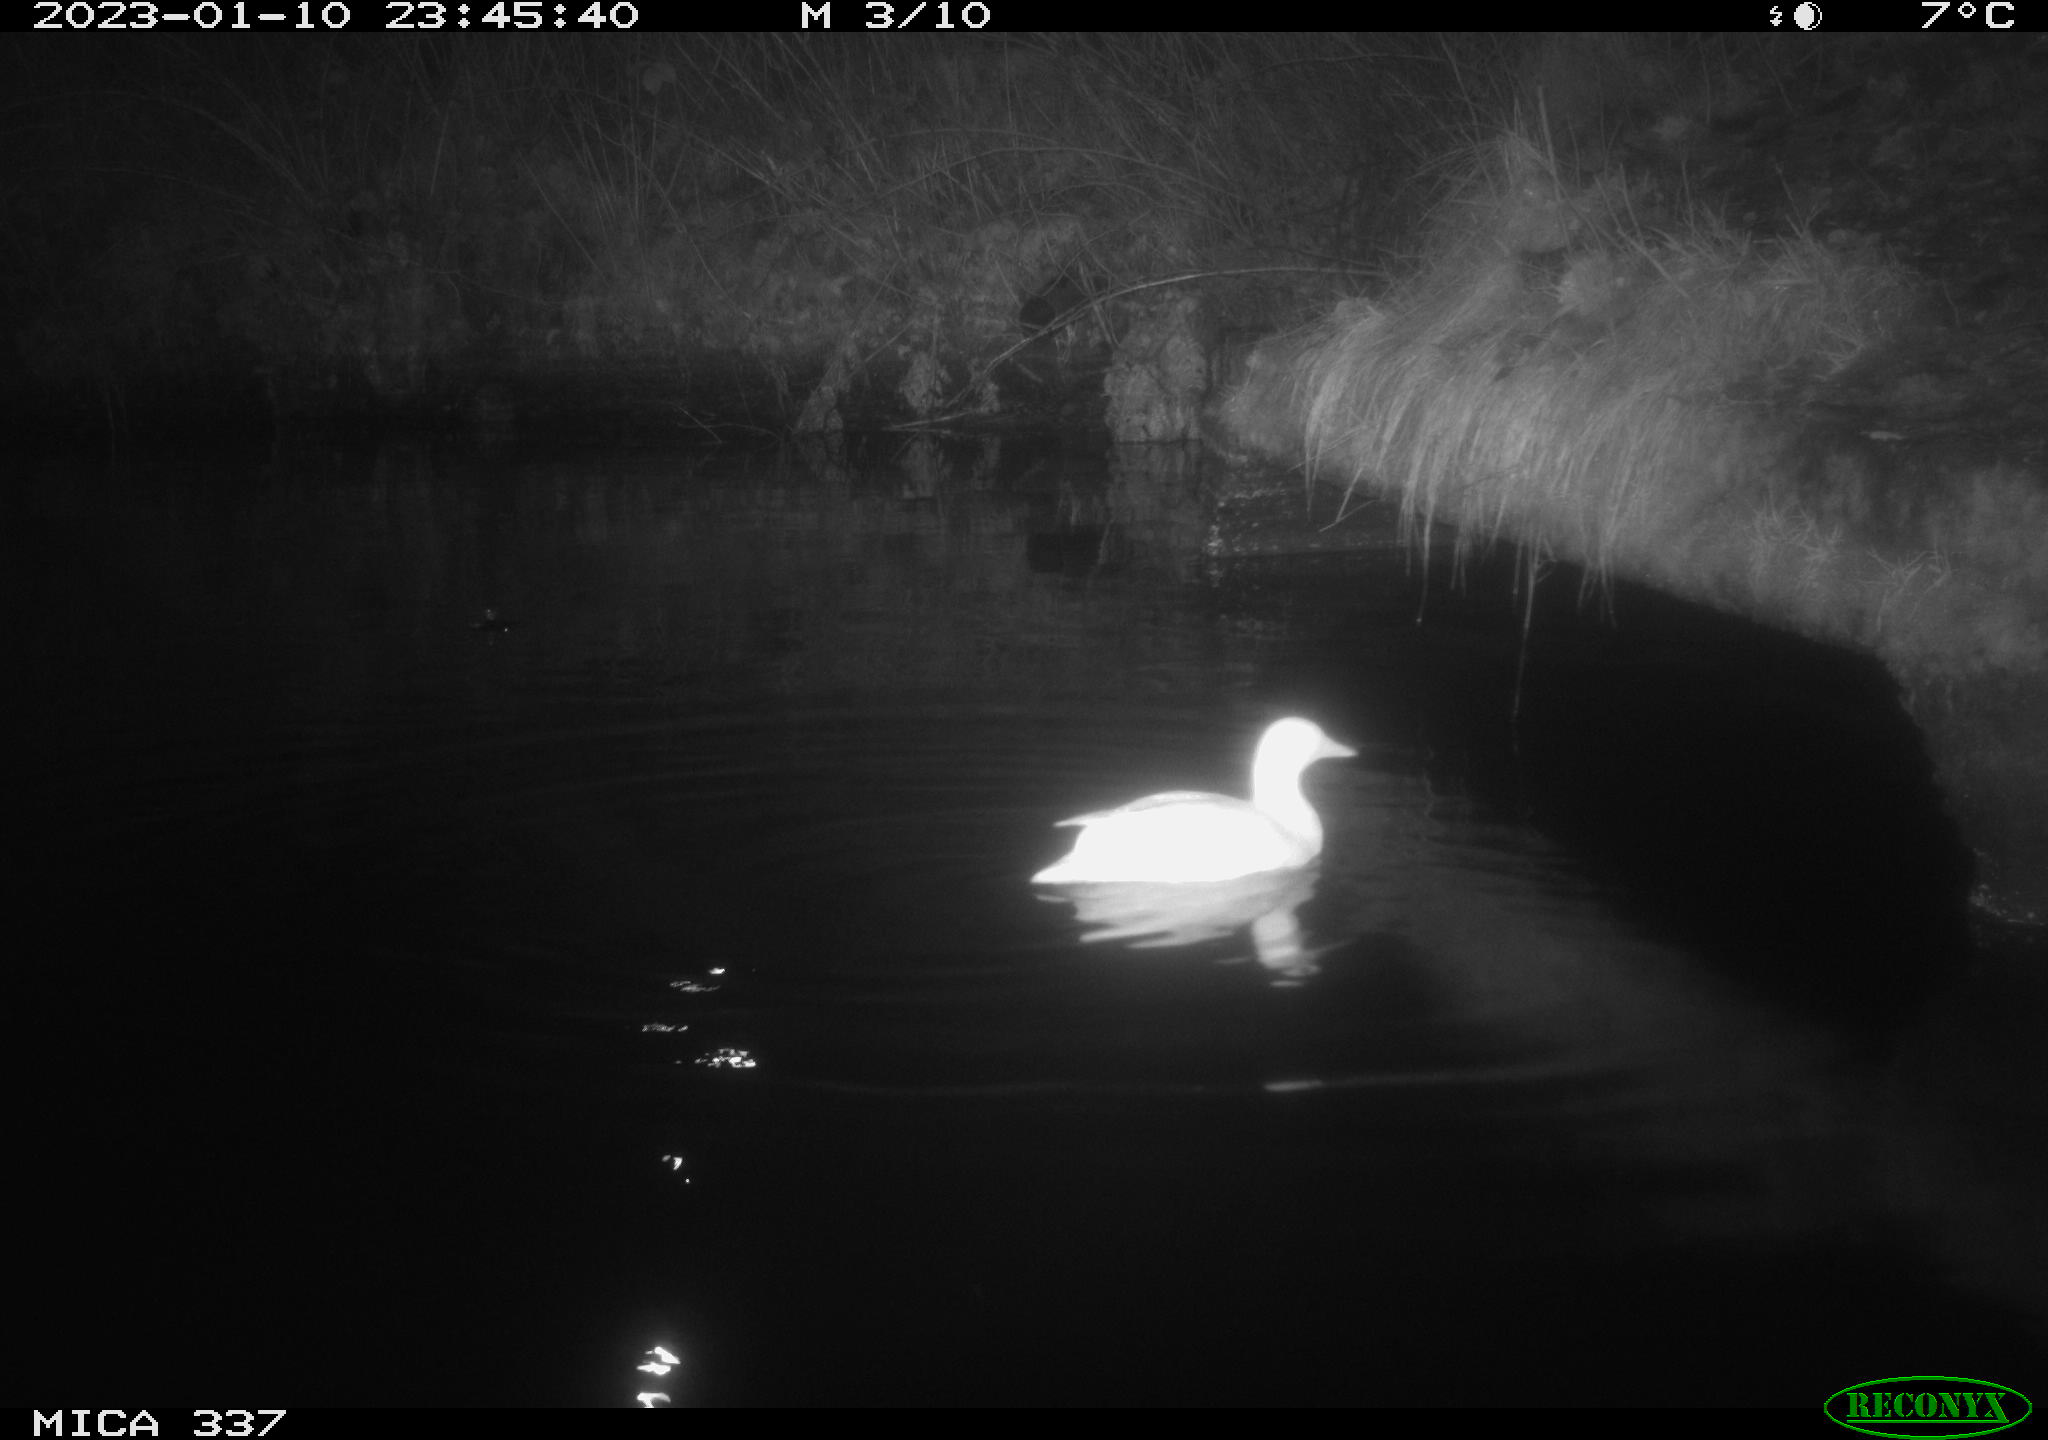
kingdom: Animalia
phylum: Chordata
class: Aves
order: Anseriformes
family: Anatidae
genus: Anas
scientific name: Anas
